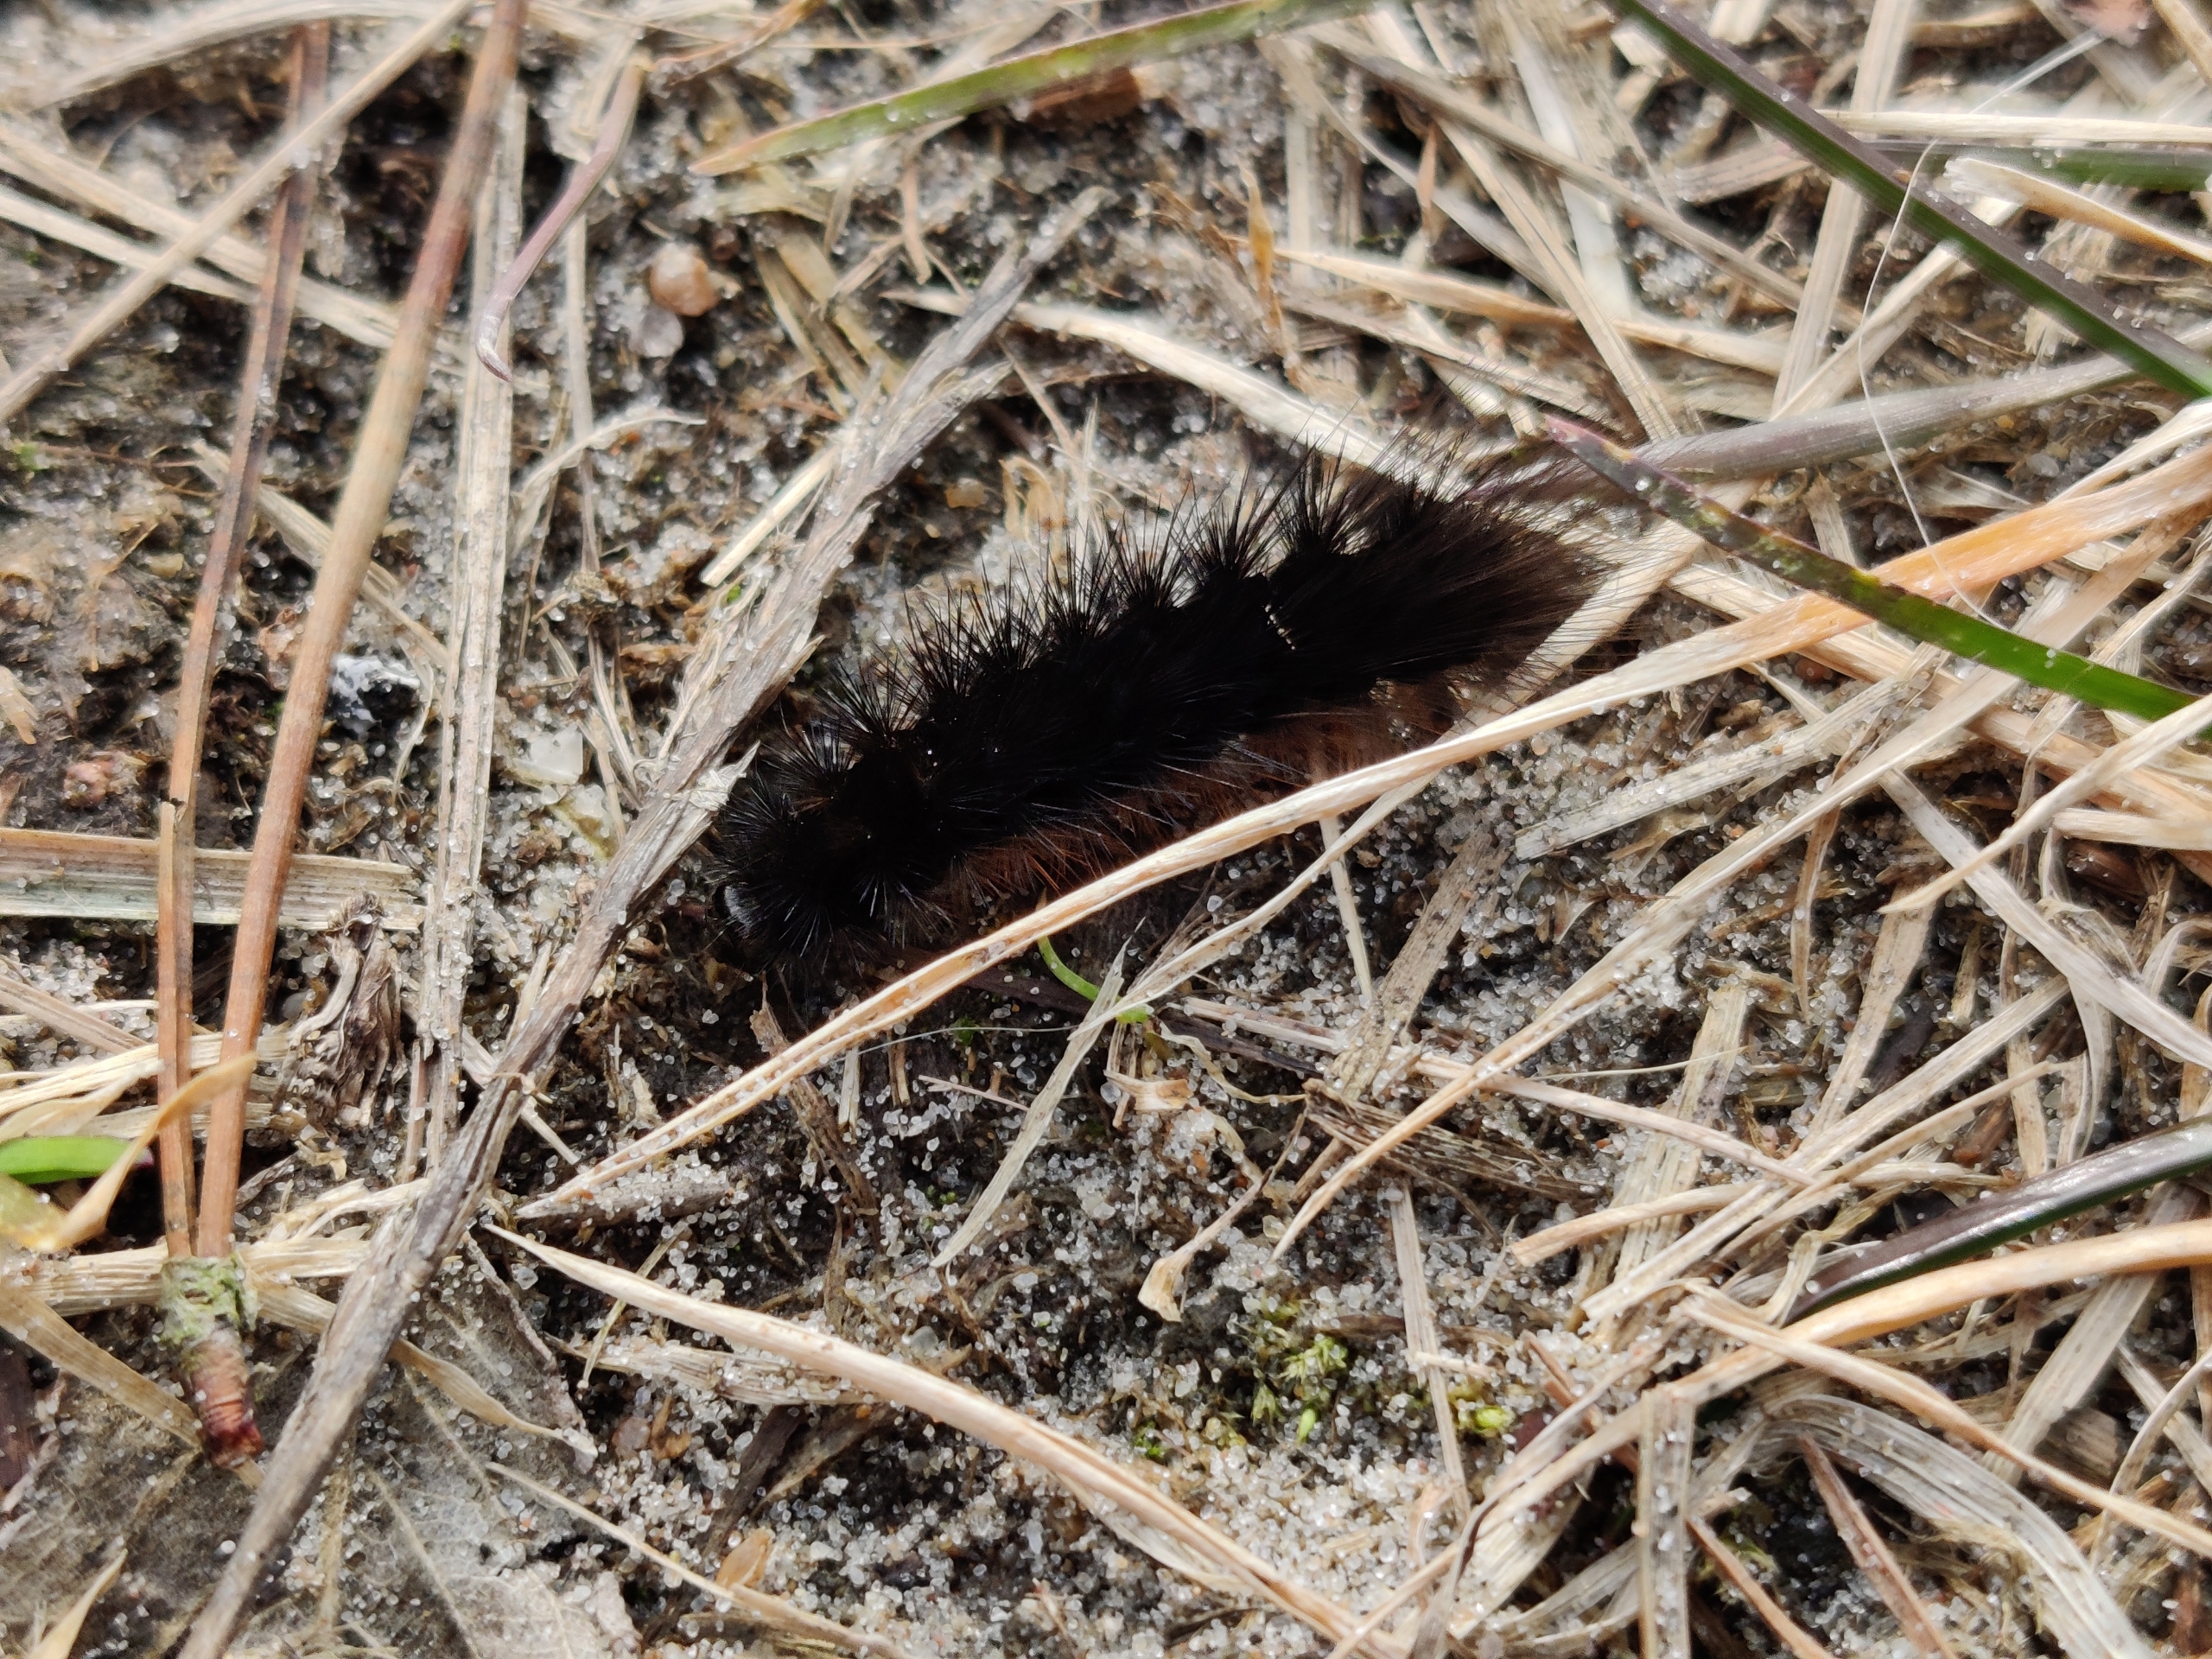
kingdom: Animalia
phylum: Arthropoda
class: Insecta
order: Lepidoptera
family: Erebidae
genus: Hyphoraia
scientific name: Hyphoraia aulica
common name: Gulplettet bjørn
